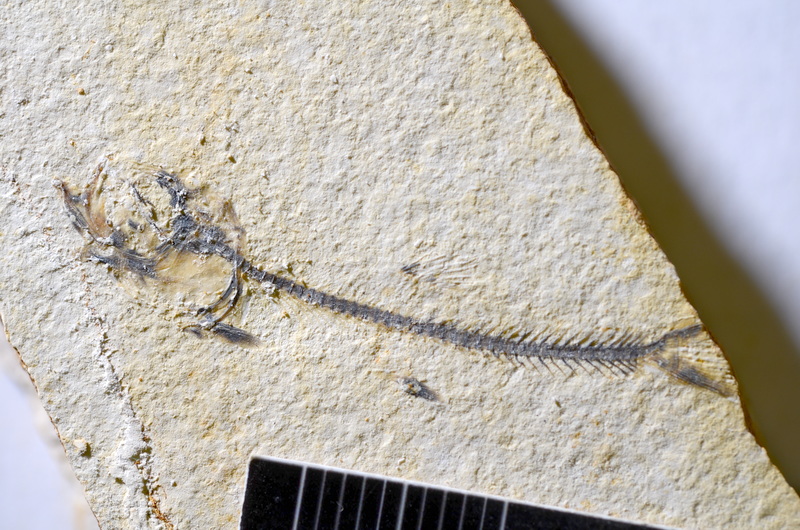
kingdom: Animalia
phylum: Chordata
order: Salmoniformes
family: Orthogonikleithridae
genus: Orthogonikleithrus
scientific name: Orthogonikleithrus hoelli
